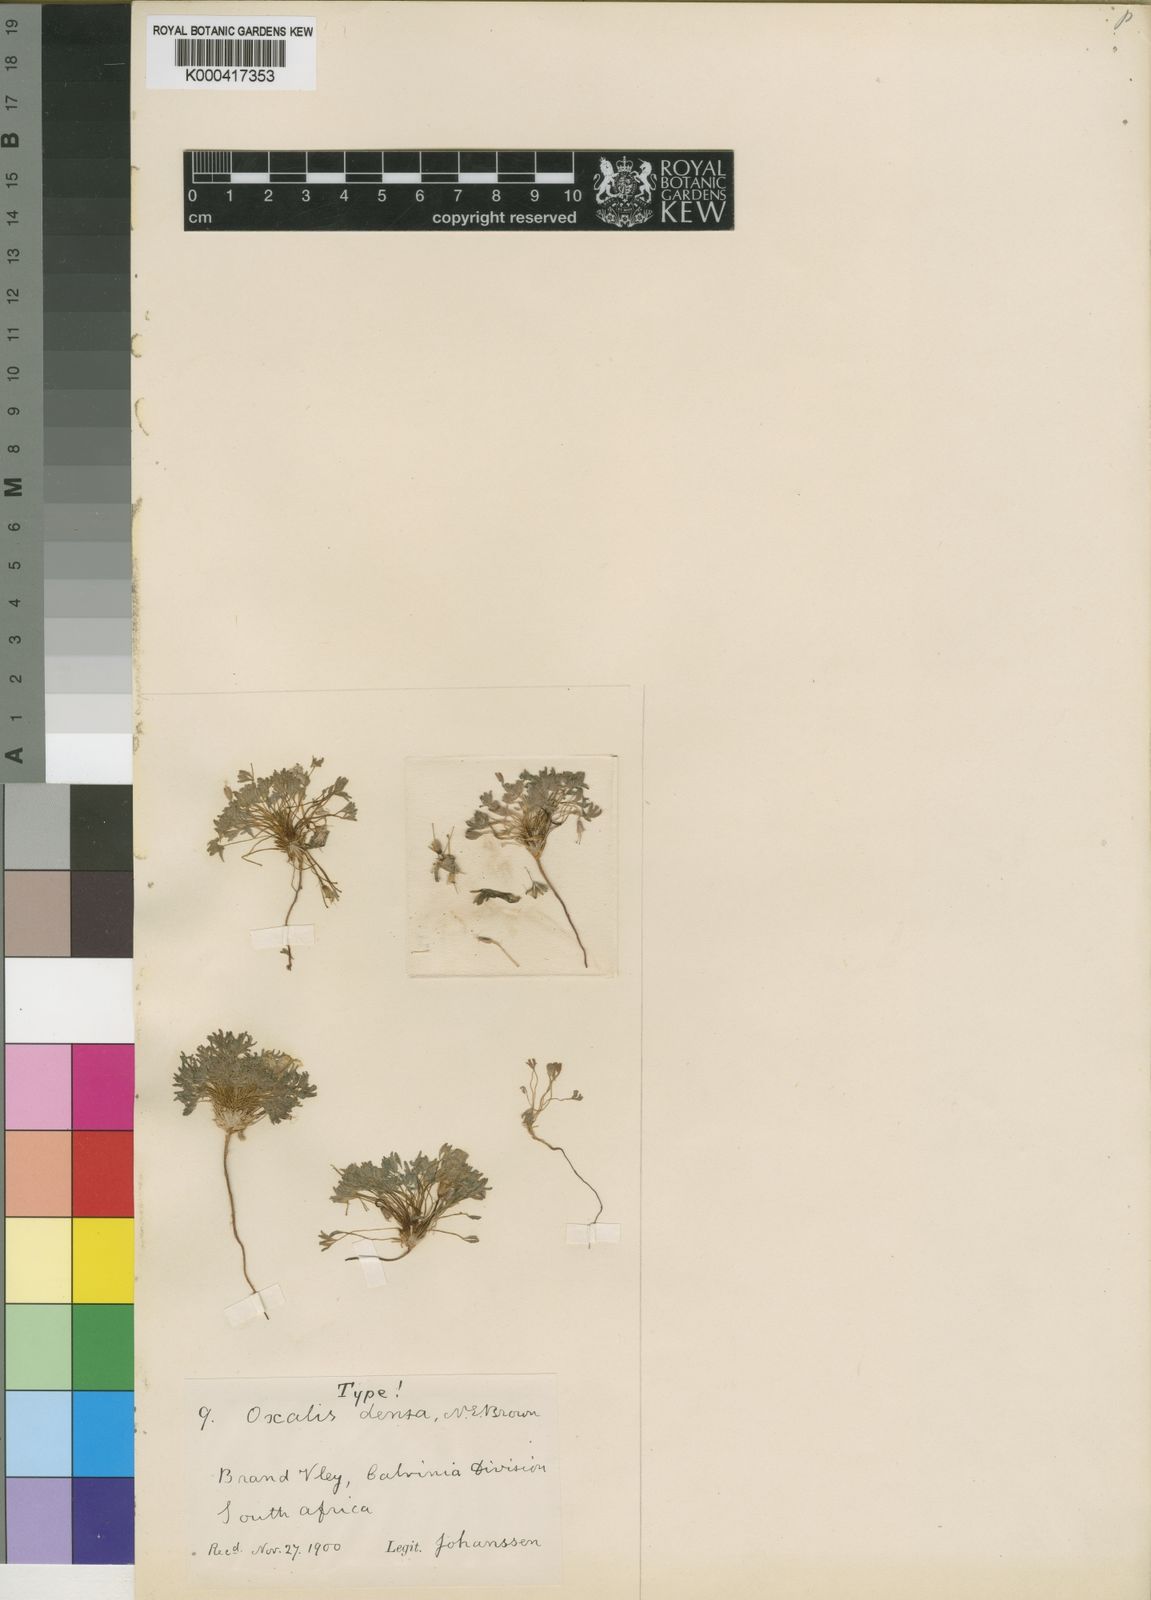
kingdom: Plantae
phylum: Tracheophyta
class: Magnoliopsida
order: Oxalidales
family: Oxalidaceae
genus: Oxalis
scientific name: Oxalis densa
